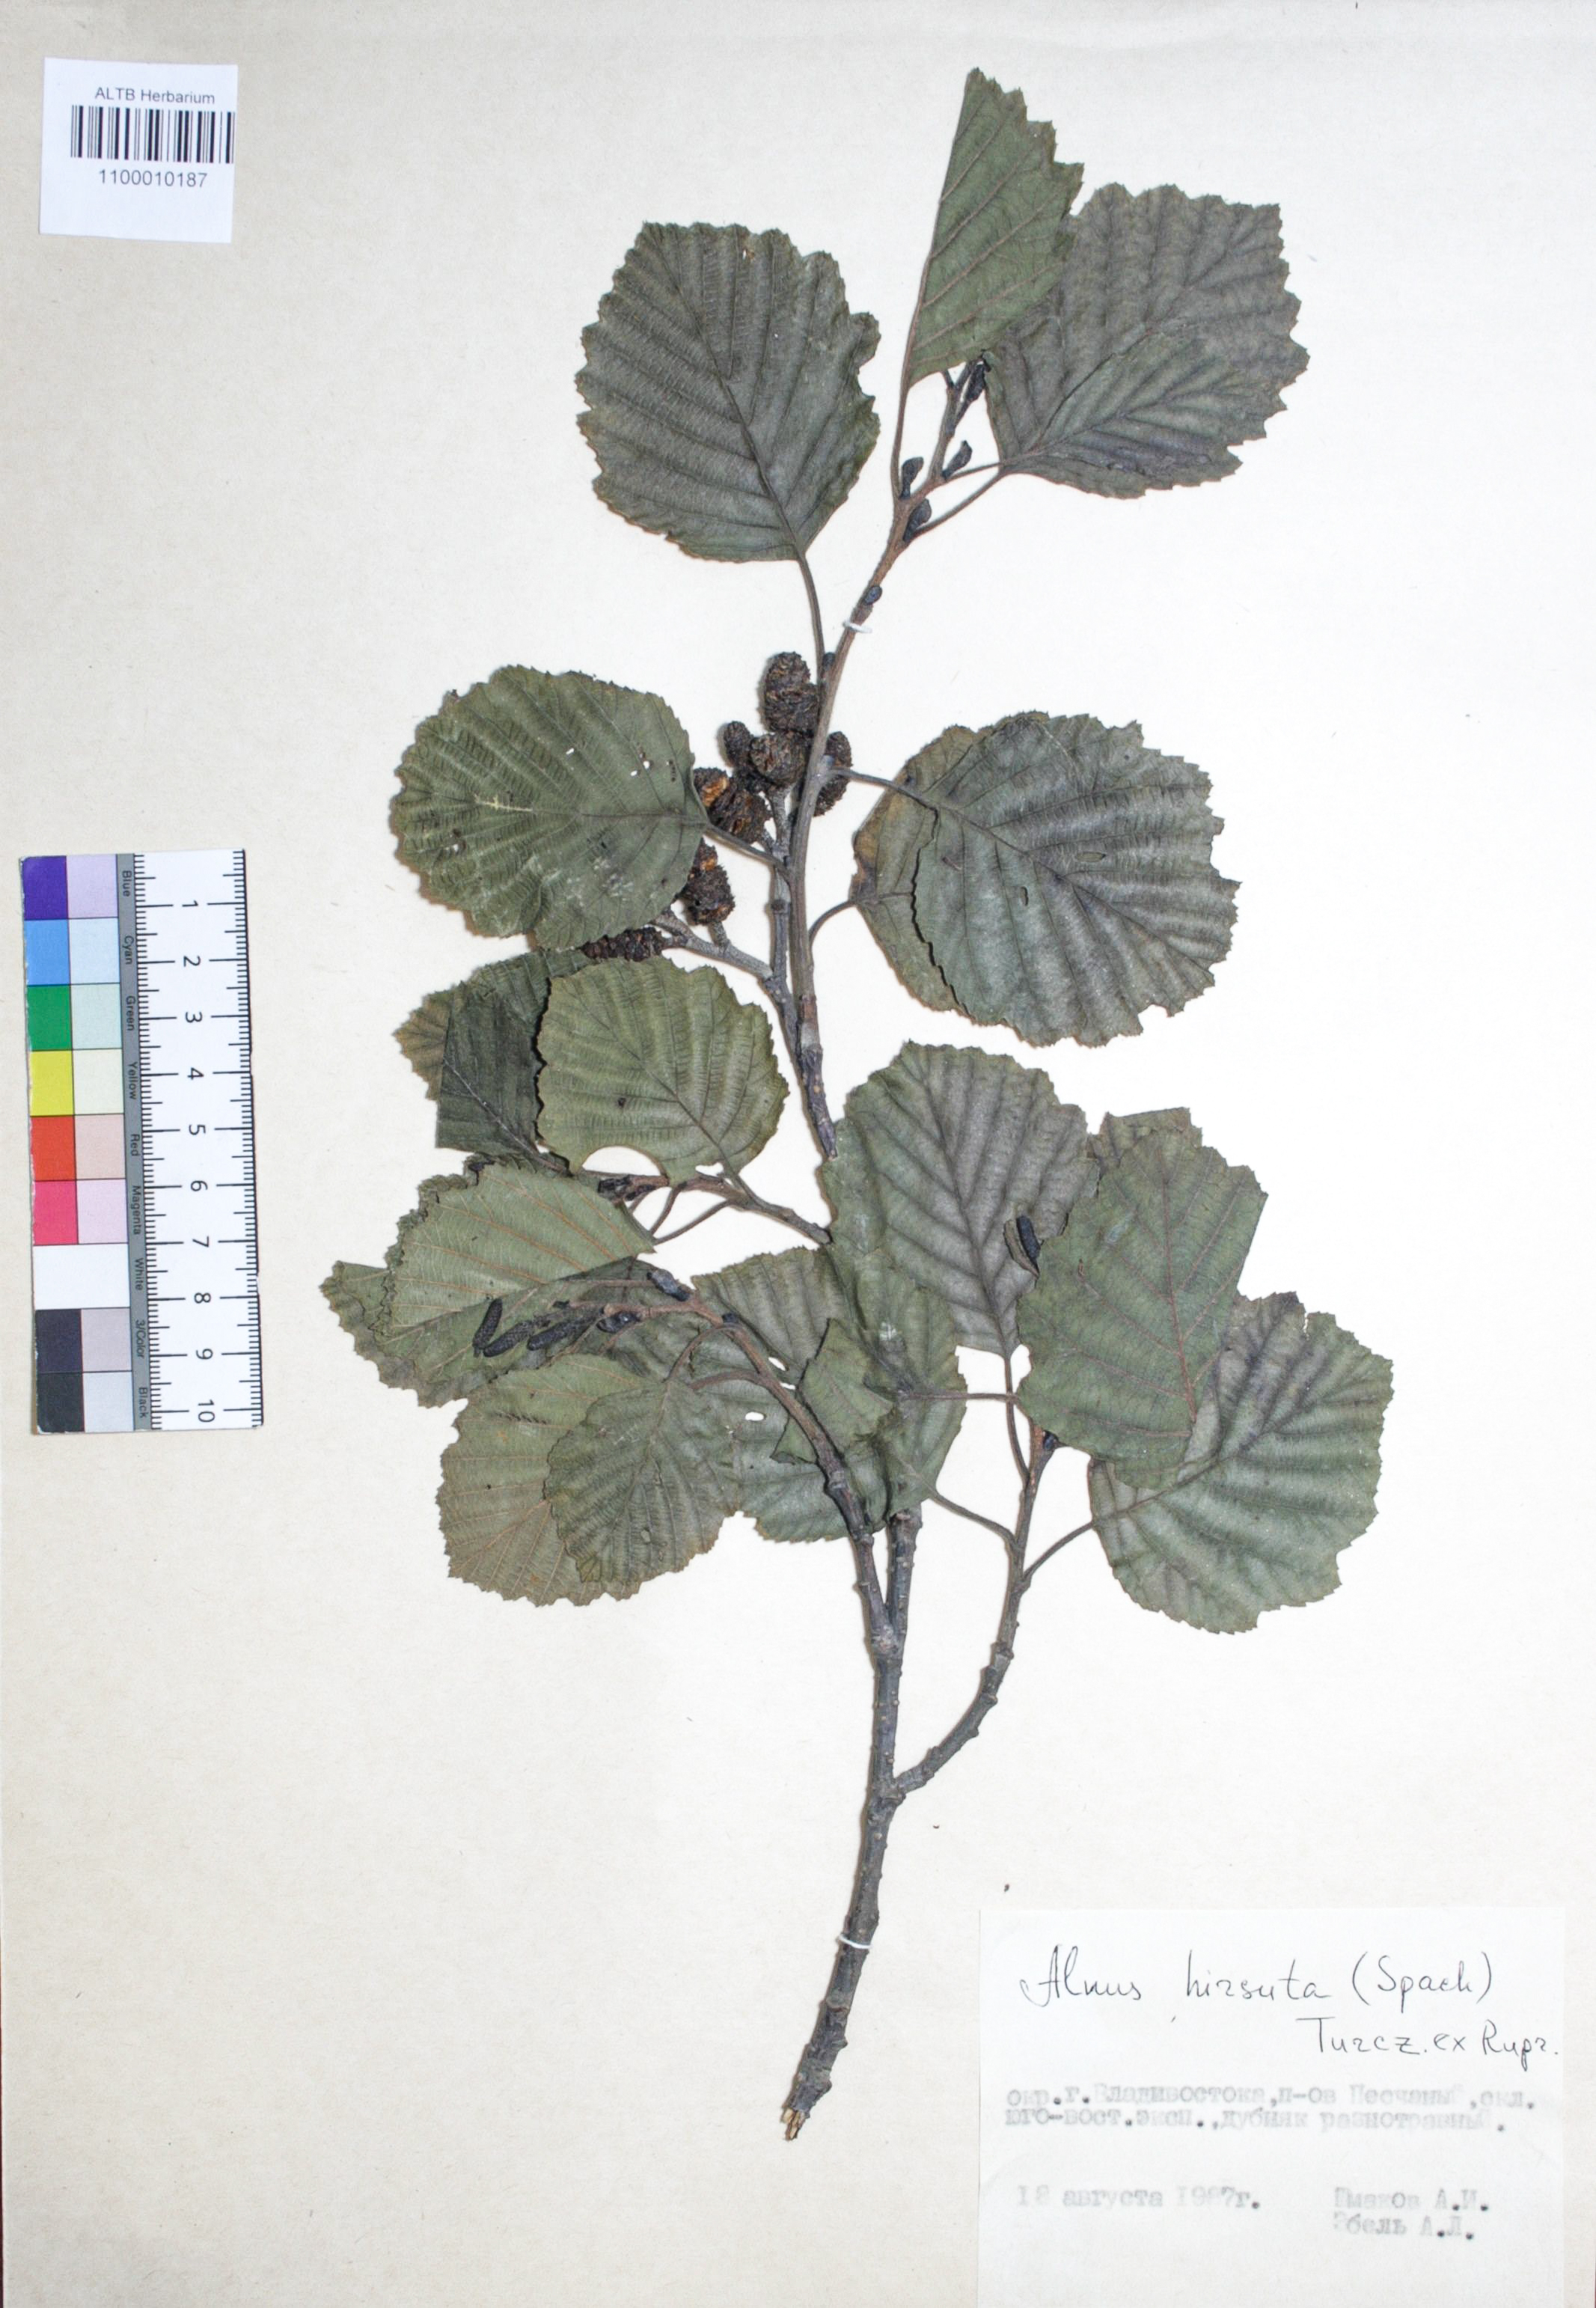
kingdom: Plantae
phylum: Tracheophyta
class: Magnoliopsida
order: Fagales
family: Betulaceae
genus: Alnus
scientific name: Alnus hirsuta
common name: Manchurian alder
